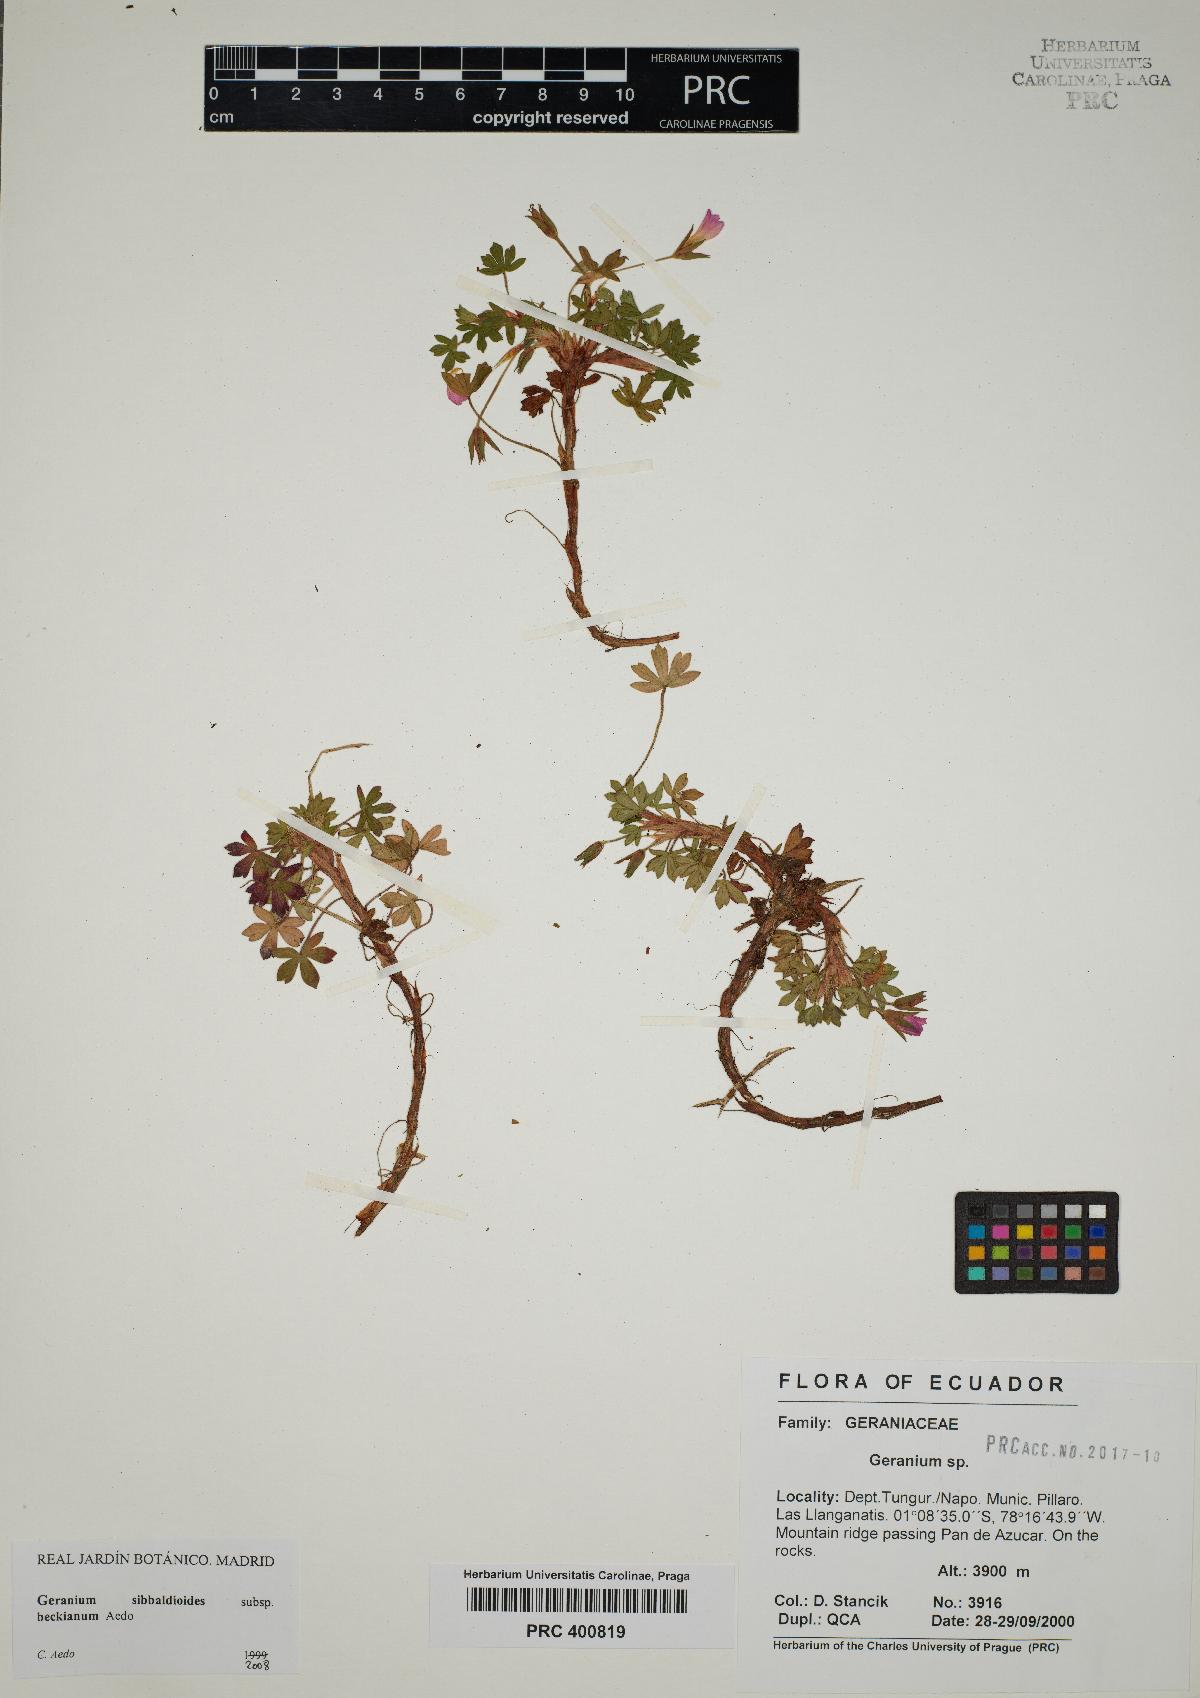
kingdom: Plantae
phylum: Tracheophyta
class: Magnoliopsida
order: Geraniales
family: Geraniaceae
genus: Geranium
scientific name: Geranium sibbaldioides
